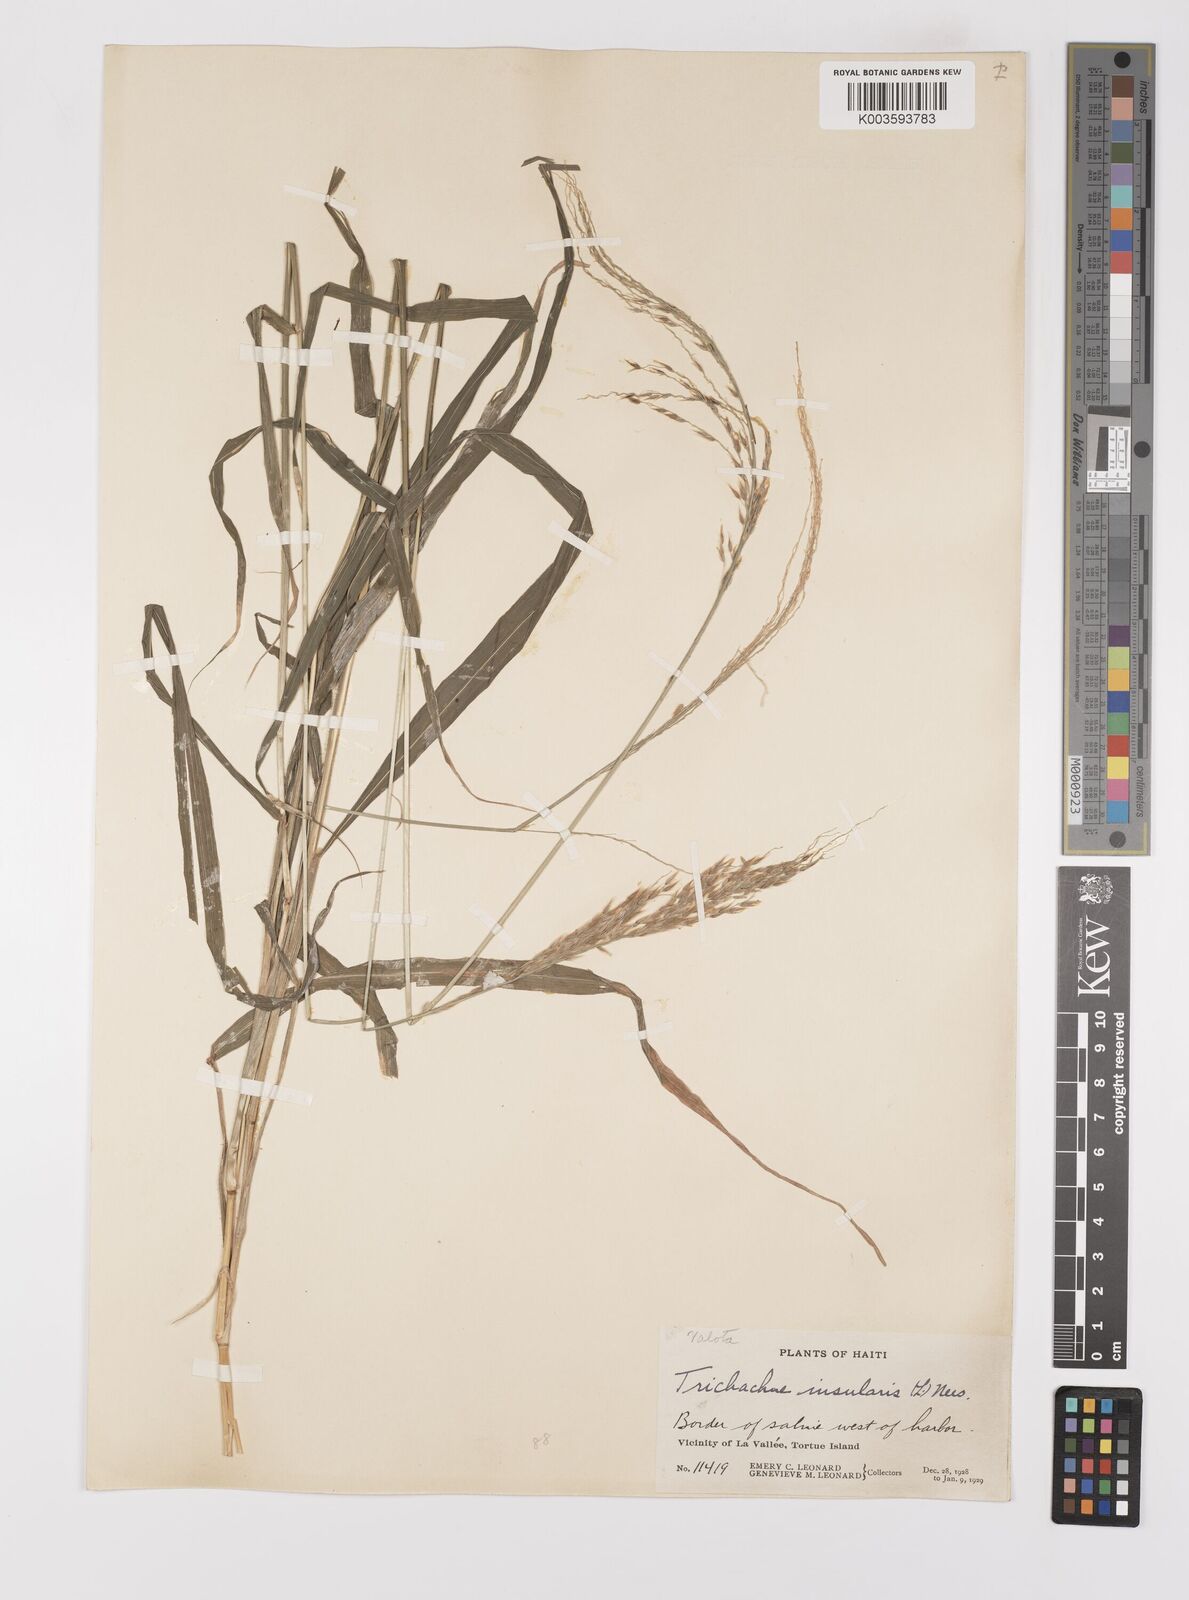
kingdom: Plantae
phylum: Tracheophyta
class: Liliopsida
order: Poales
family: Poaceae
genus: Digitaria
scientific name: Digitaria insularis
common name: Sourgrass
